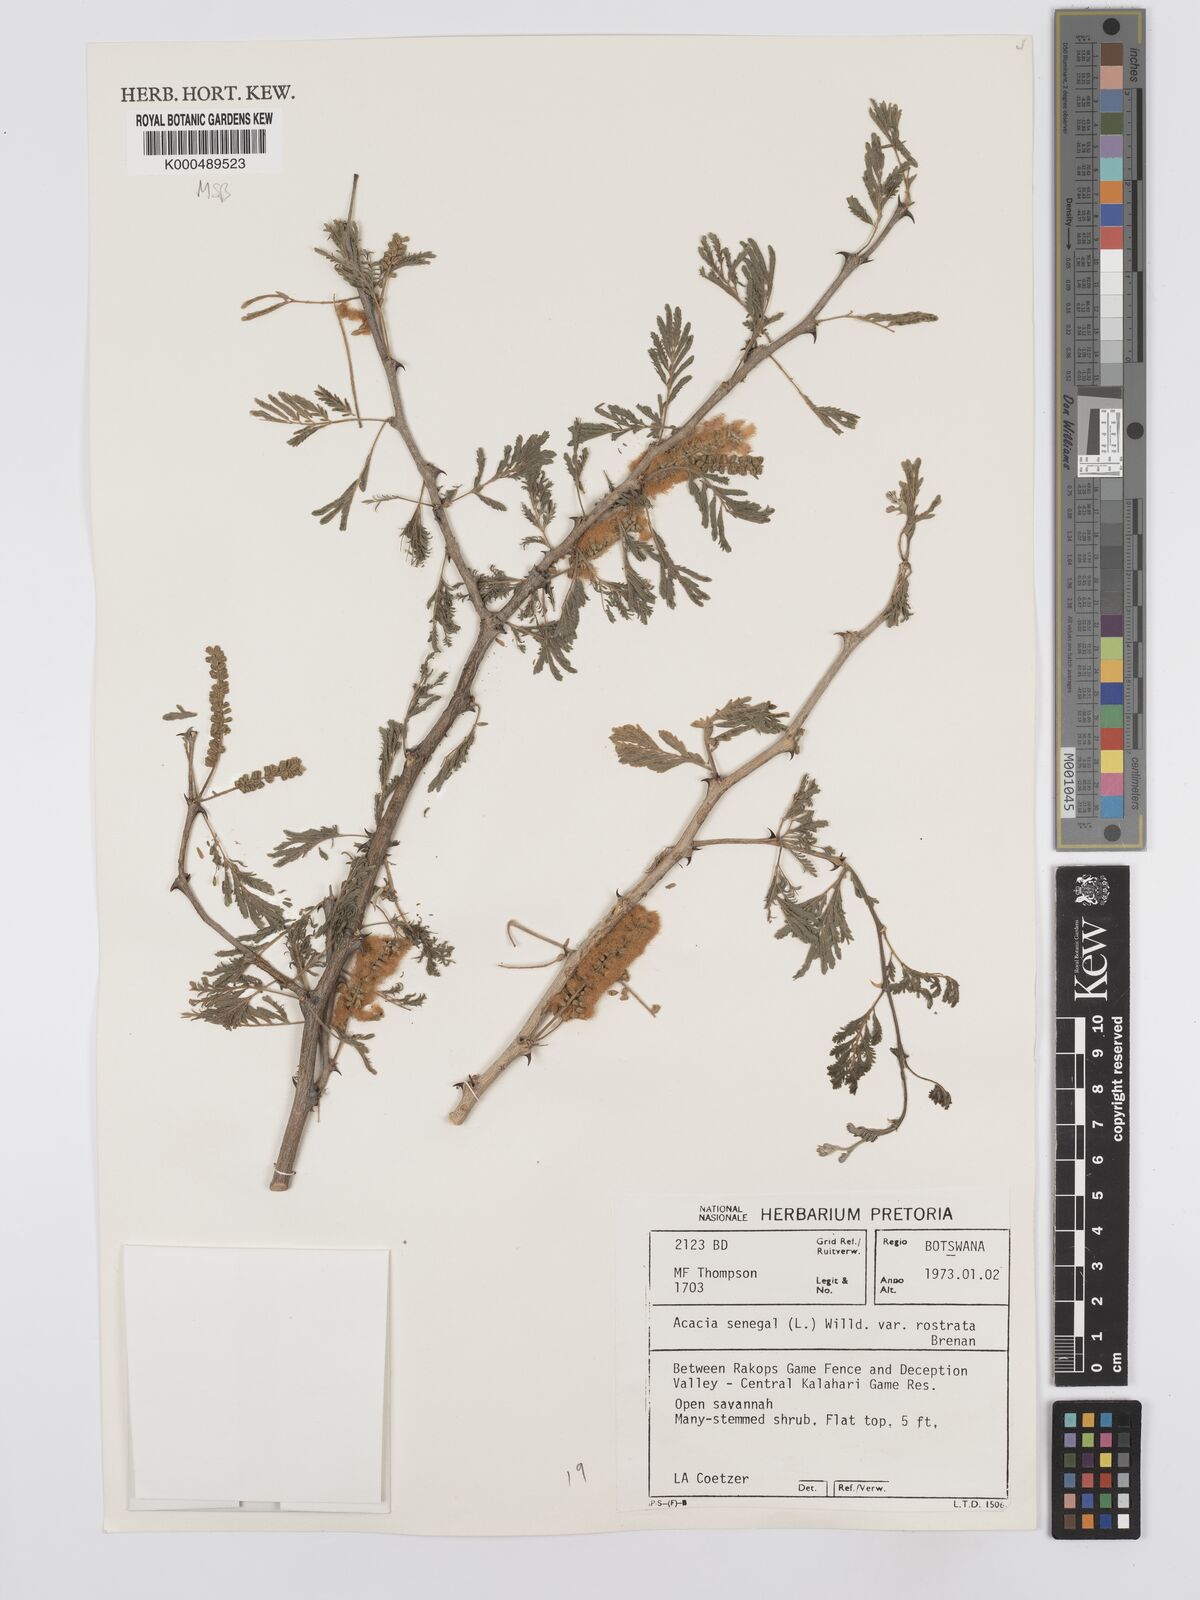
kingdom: Plantae
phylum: Tracheophyta
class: Magnoliopsida
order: Fabales
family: Fabaceae
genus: Senegalia
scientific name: Senegalia senegal
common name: Senegal-gum
